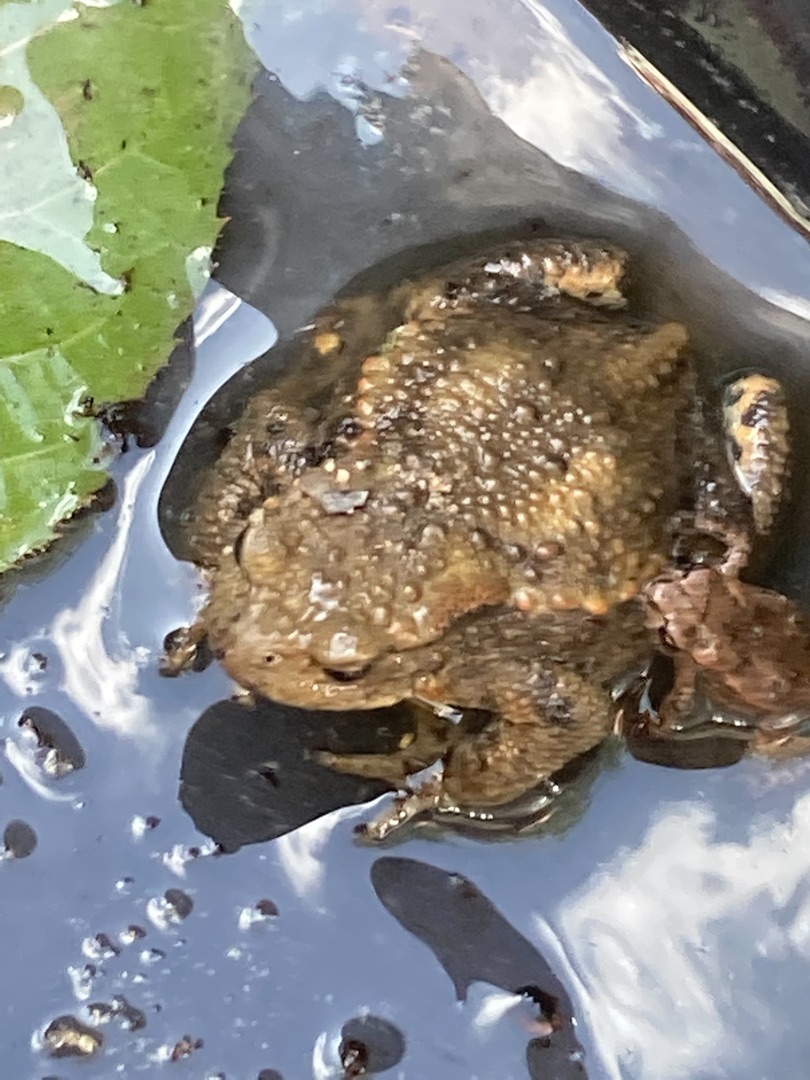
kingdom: Animalia
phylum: Chordata
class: Amphibia
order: Anura
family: Bufonidae
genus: Bufo
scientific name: Bufo bufo
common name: Skrubtudse
